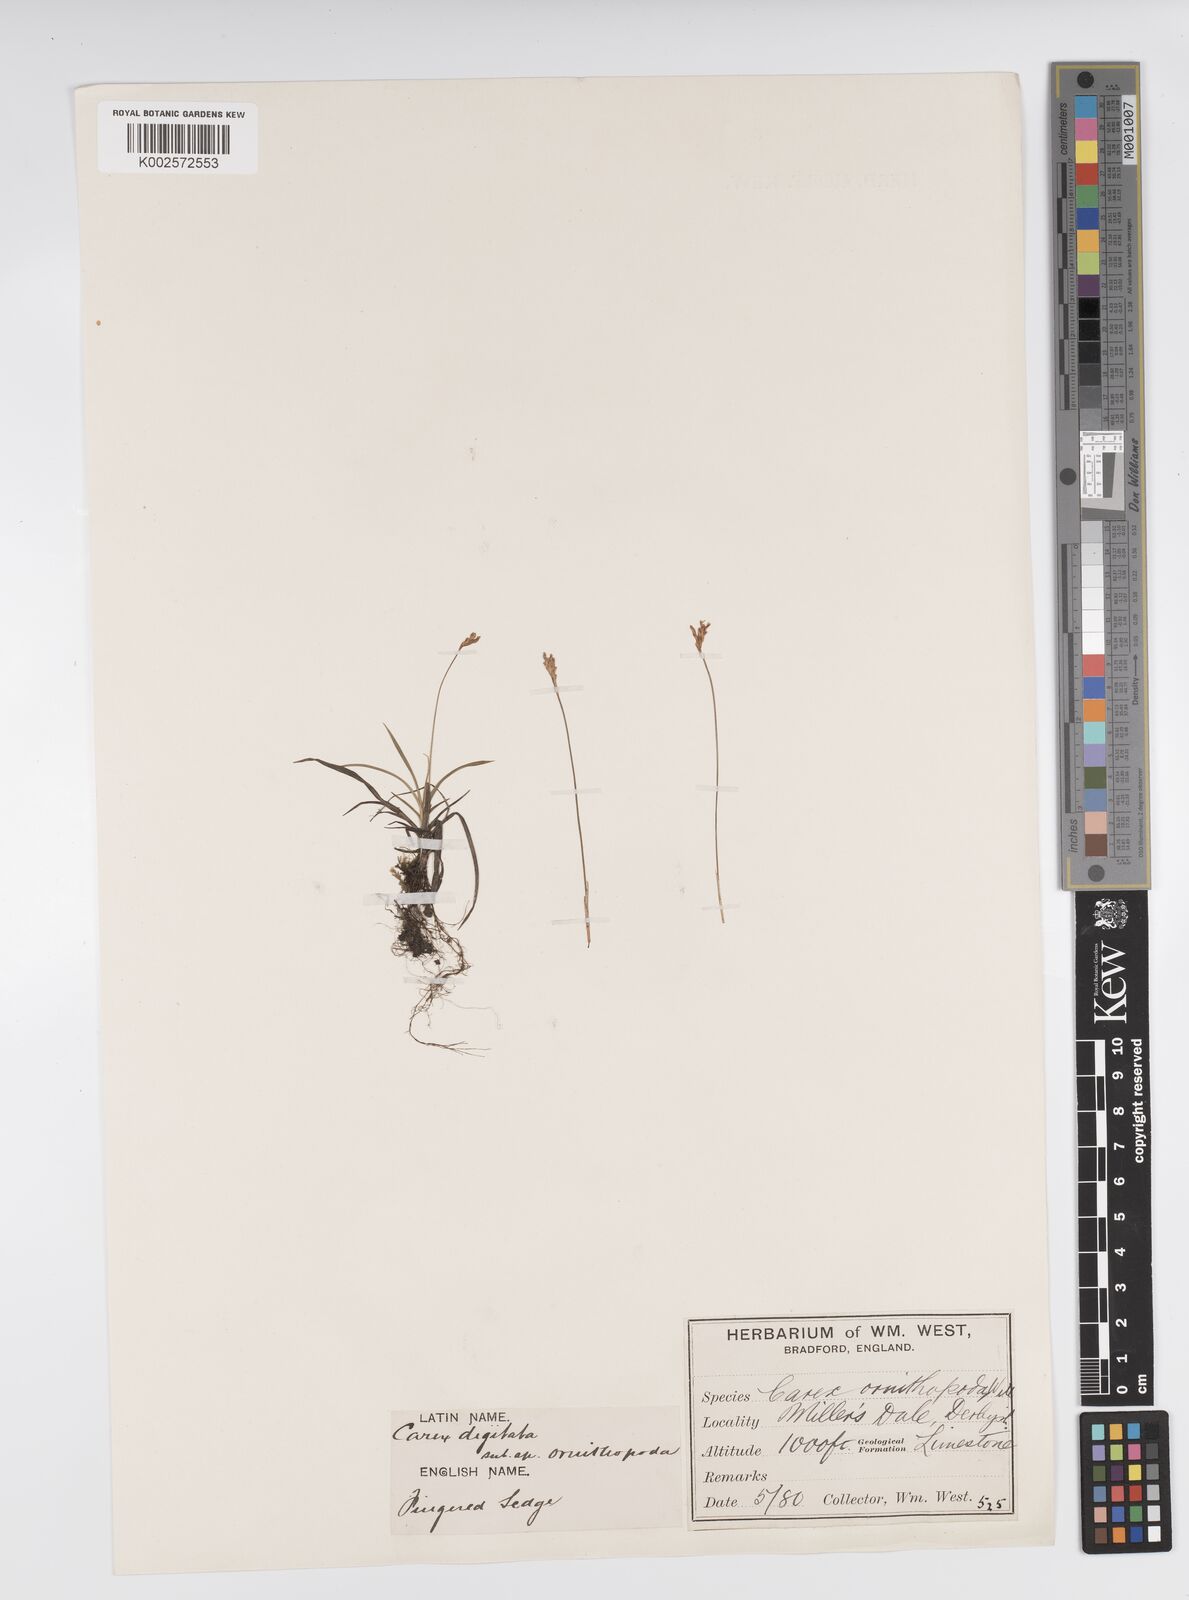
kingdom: Plantae
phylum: Tracheophyta
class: Liliopsida
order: Poales
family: Cyperaceae
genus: Carex
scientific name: Carex ornithopoda
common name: Bird's-foot sedge
